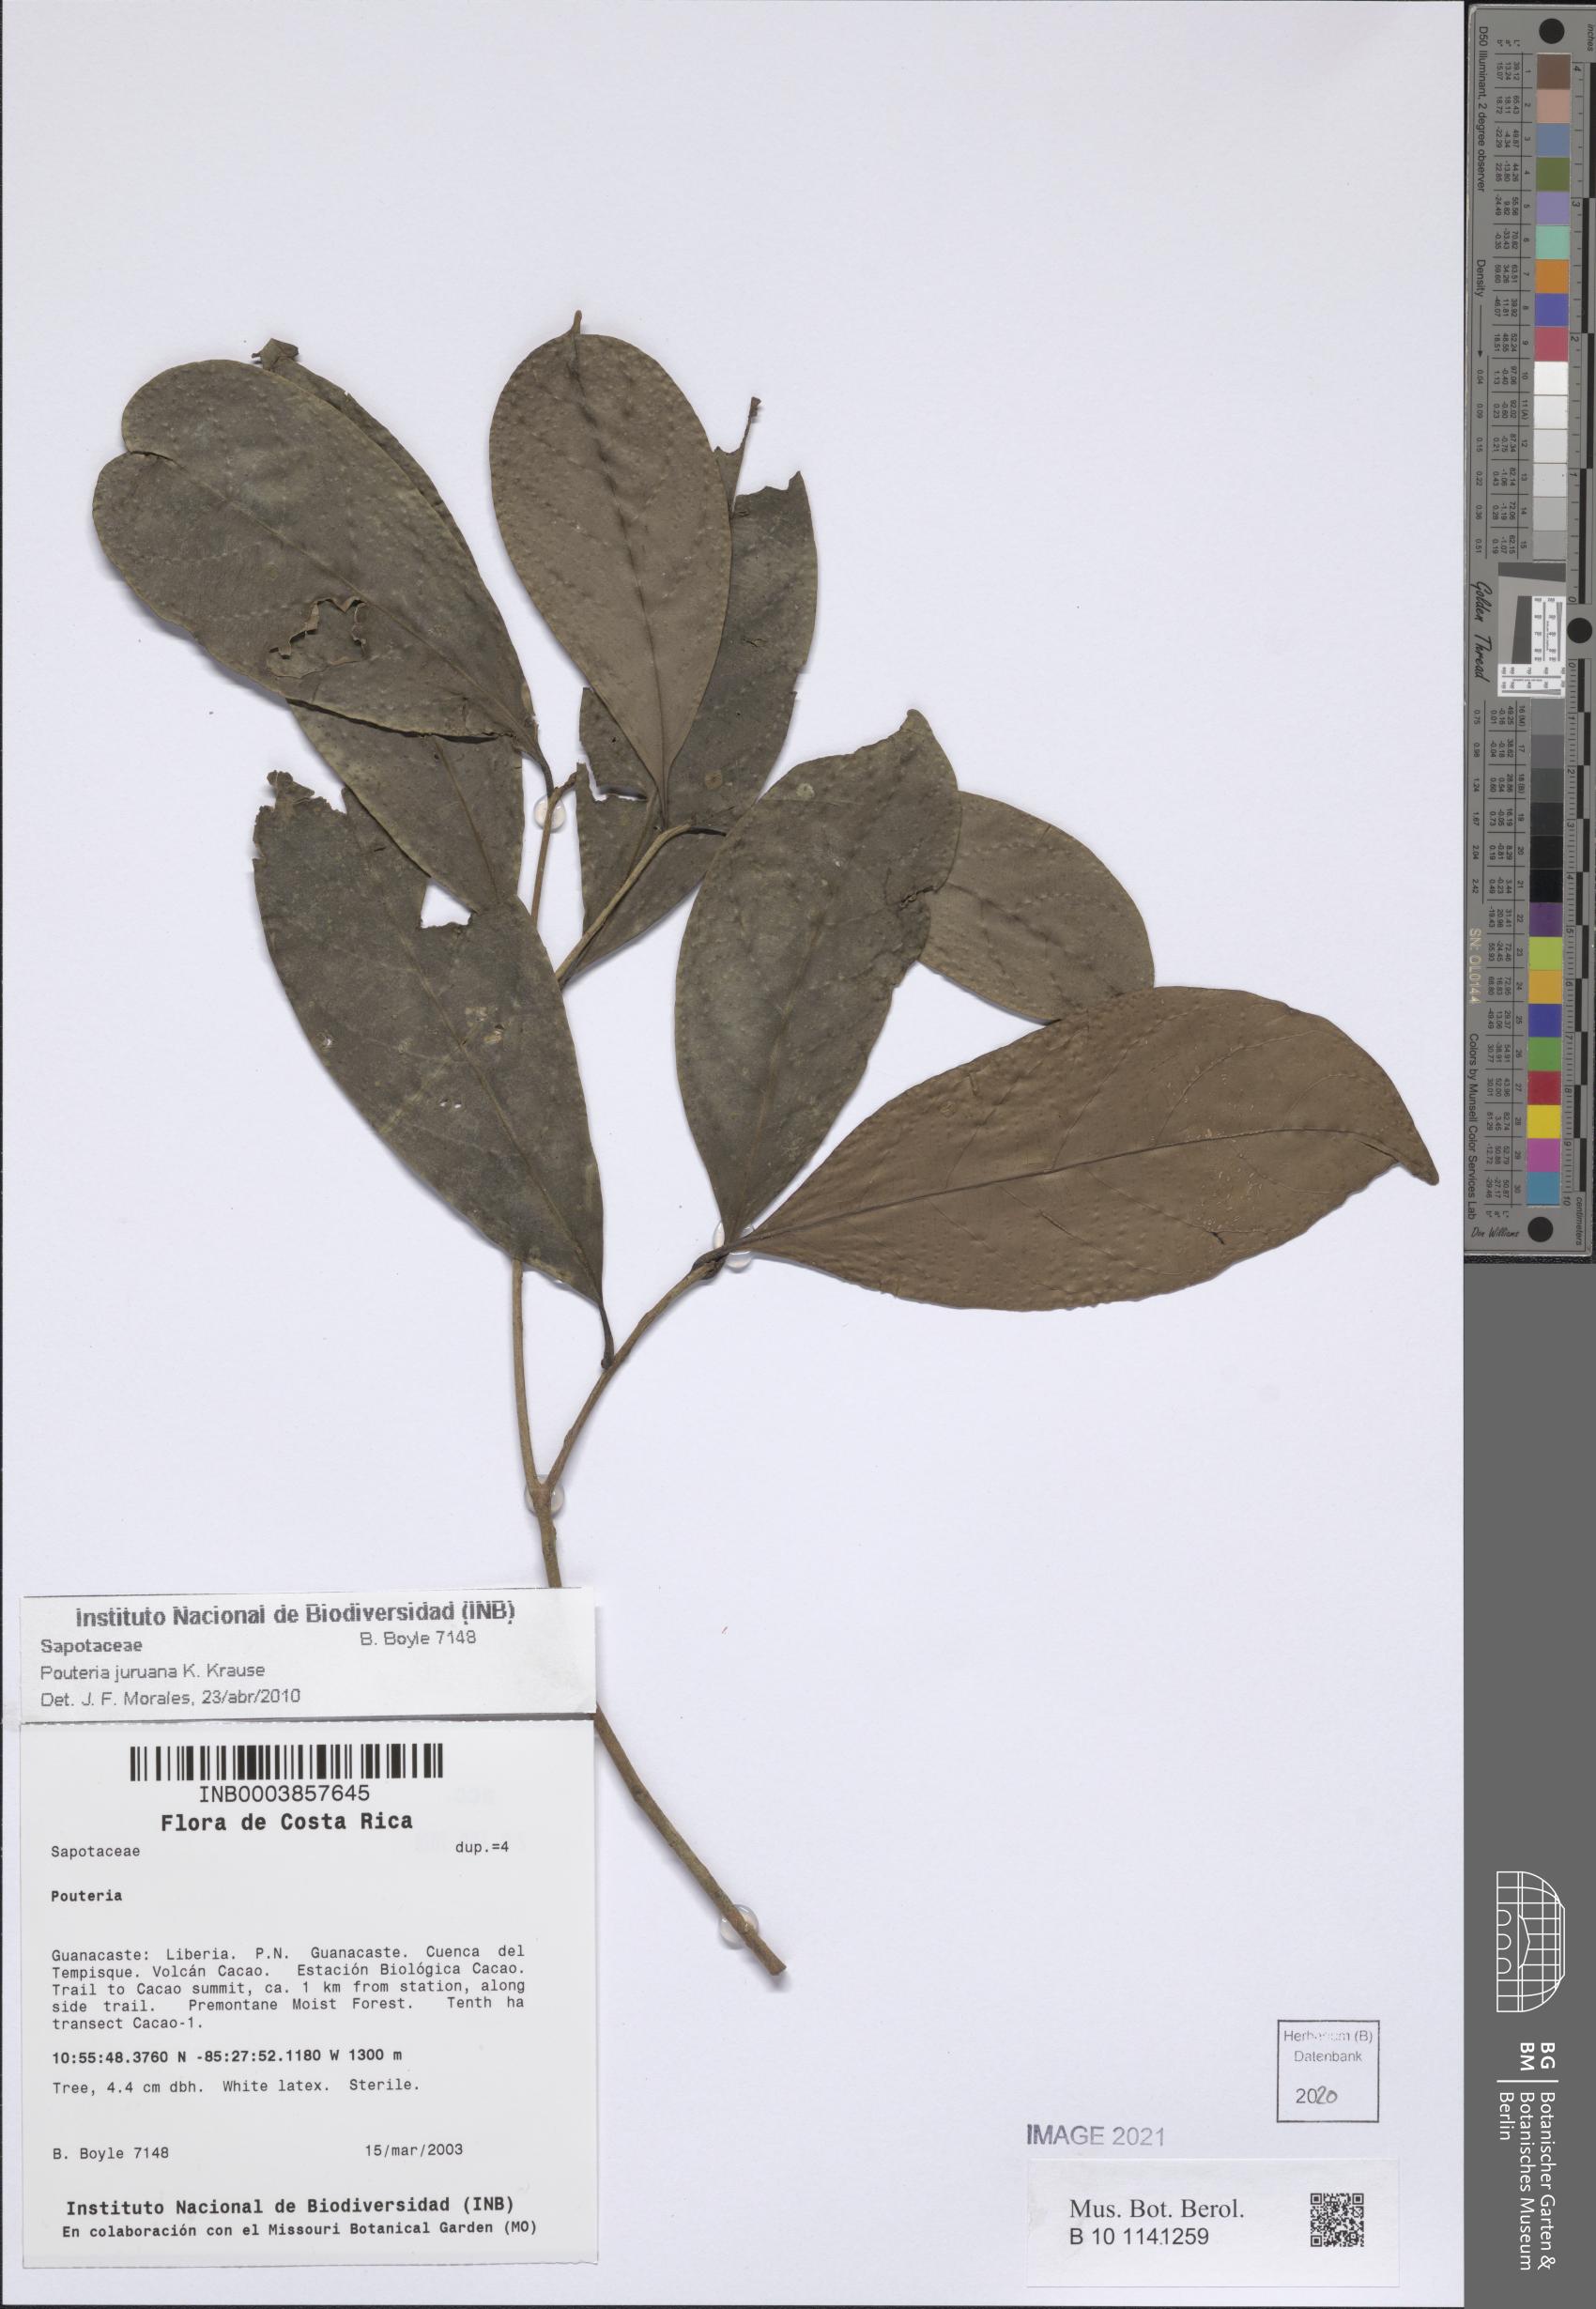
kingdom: Plantae
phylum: Tracheophyta
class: Magnoliopsida
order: Ericales
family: Sapotaceae
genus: Pouteria
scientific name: Pouteria juruana
